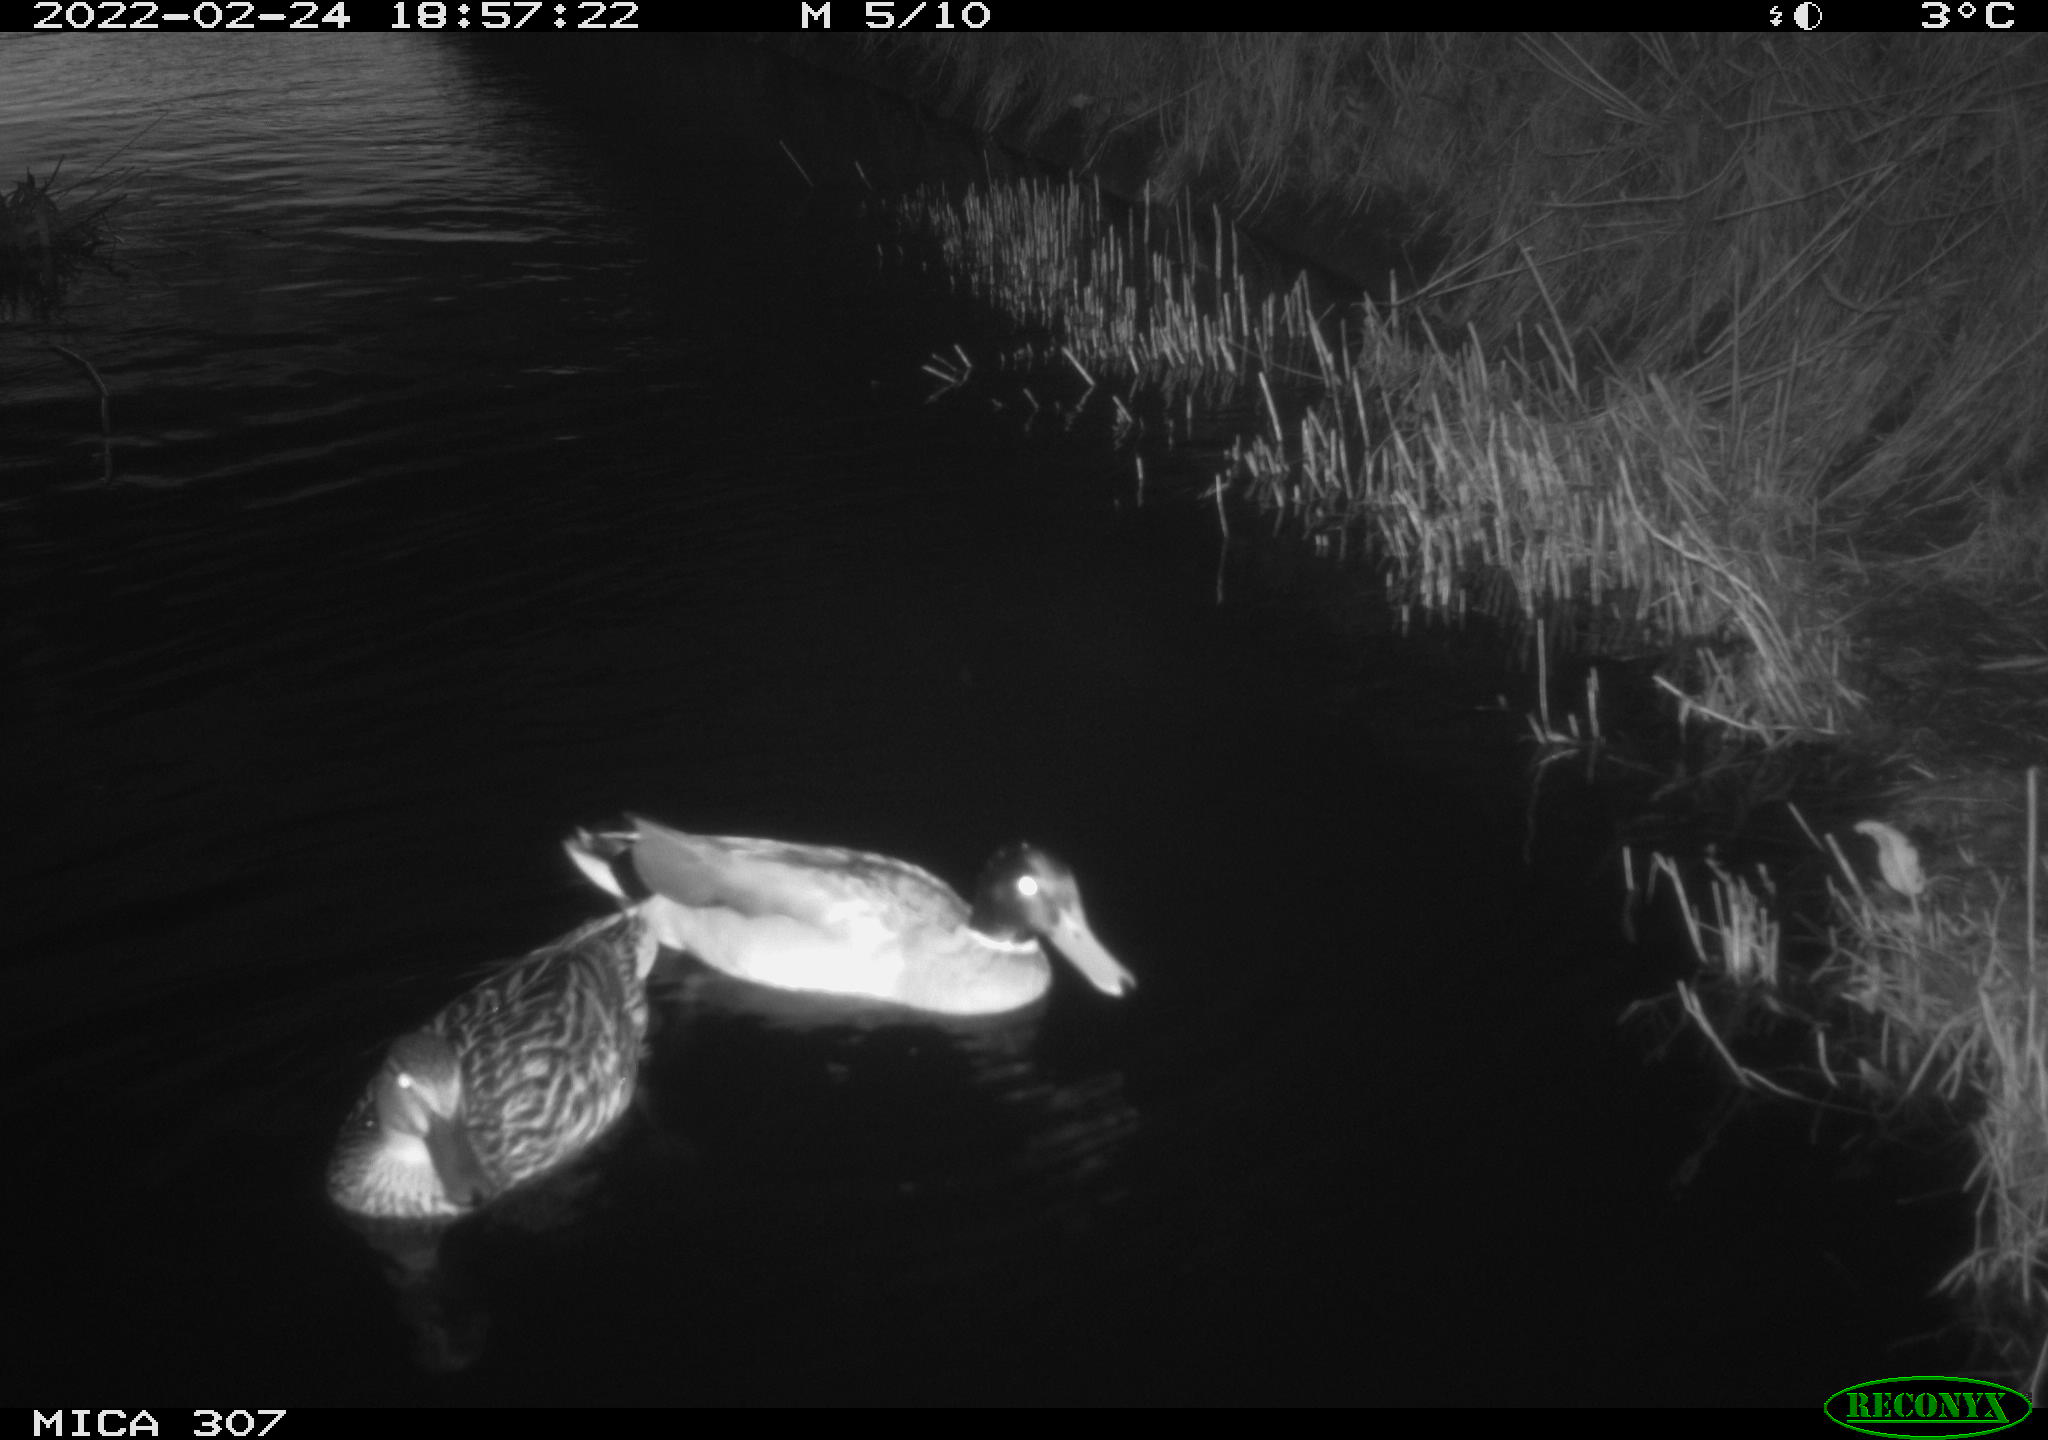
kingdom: Animalia
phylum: Chordata
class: Aves
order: Anseriformes
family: Anatidae
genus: Anas
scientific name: Anas platyrhynchos
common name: Mallard
